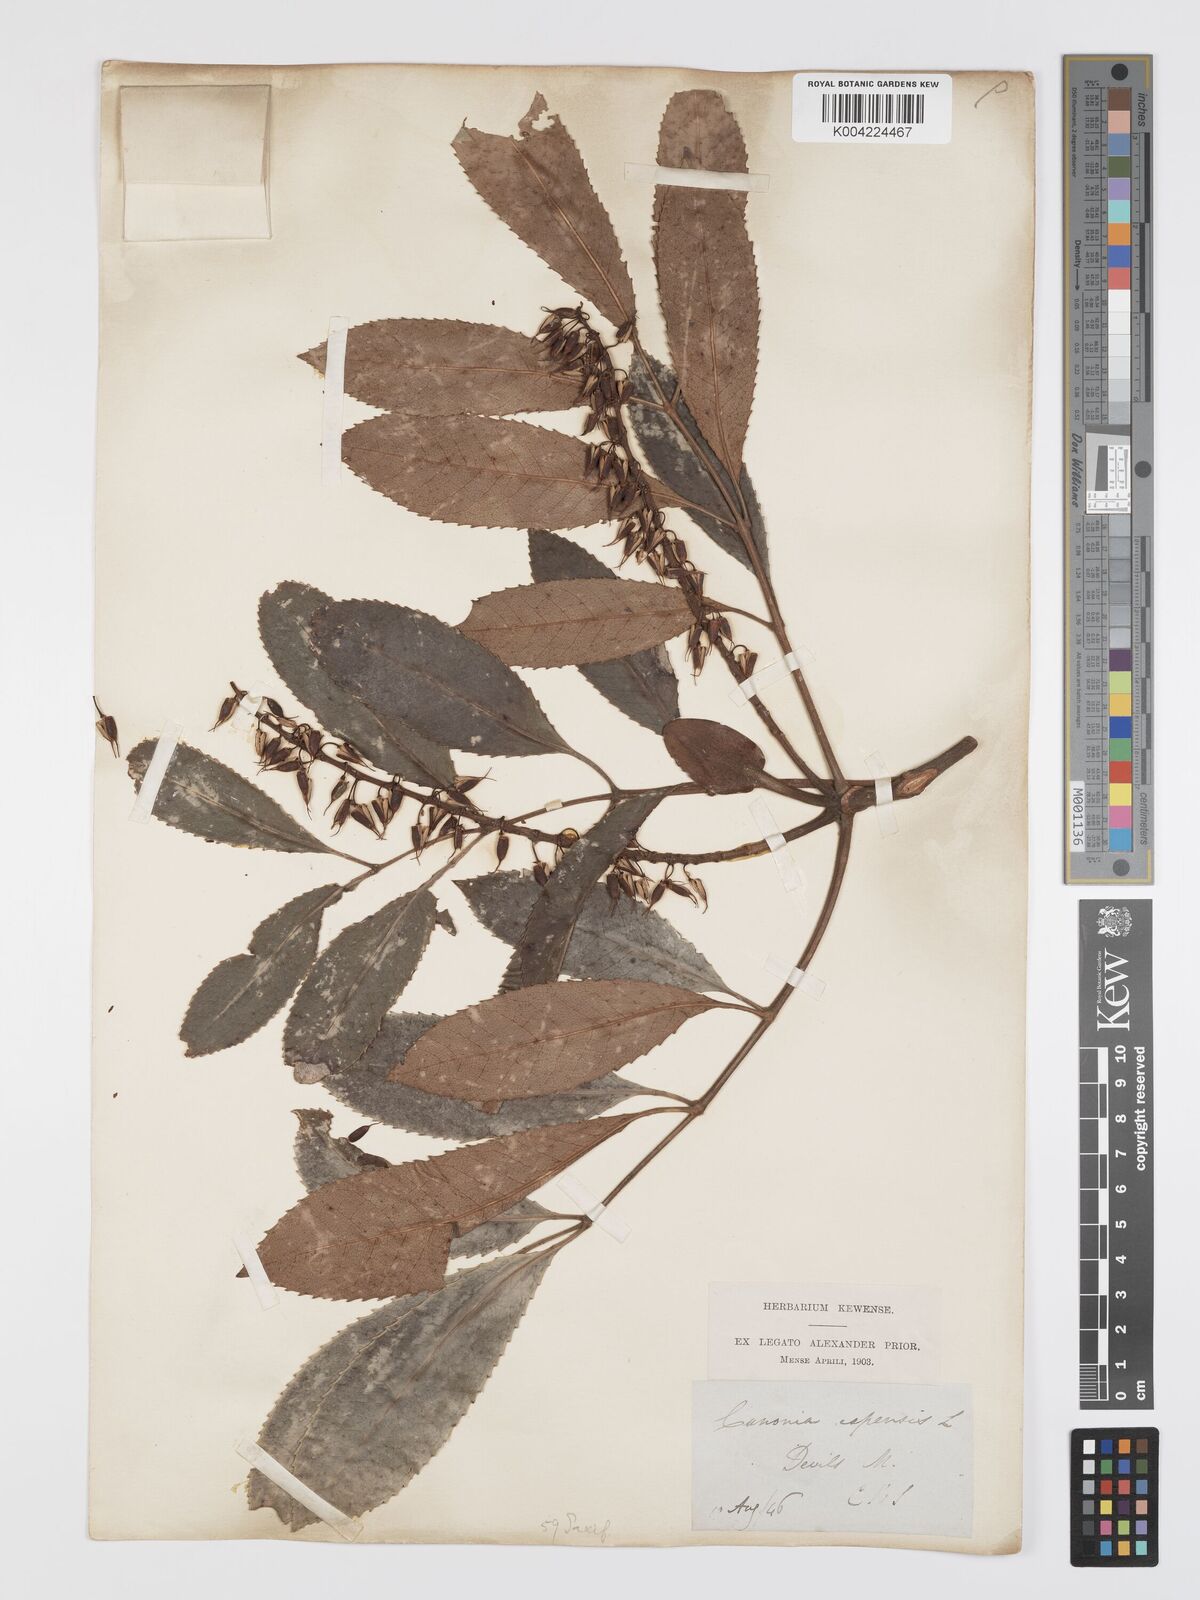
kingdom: Plantae
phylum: Tracheophyta
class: Magnoliopsida
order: Oxalidales
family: Cunoniaceae
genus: Cunonia
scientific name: Cunonia capensis
